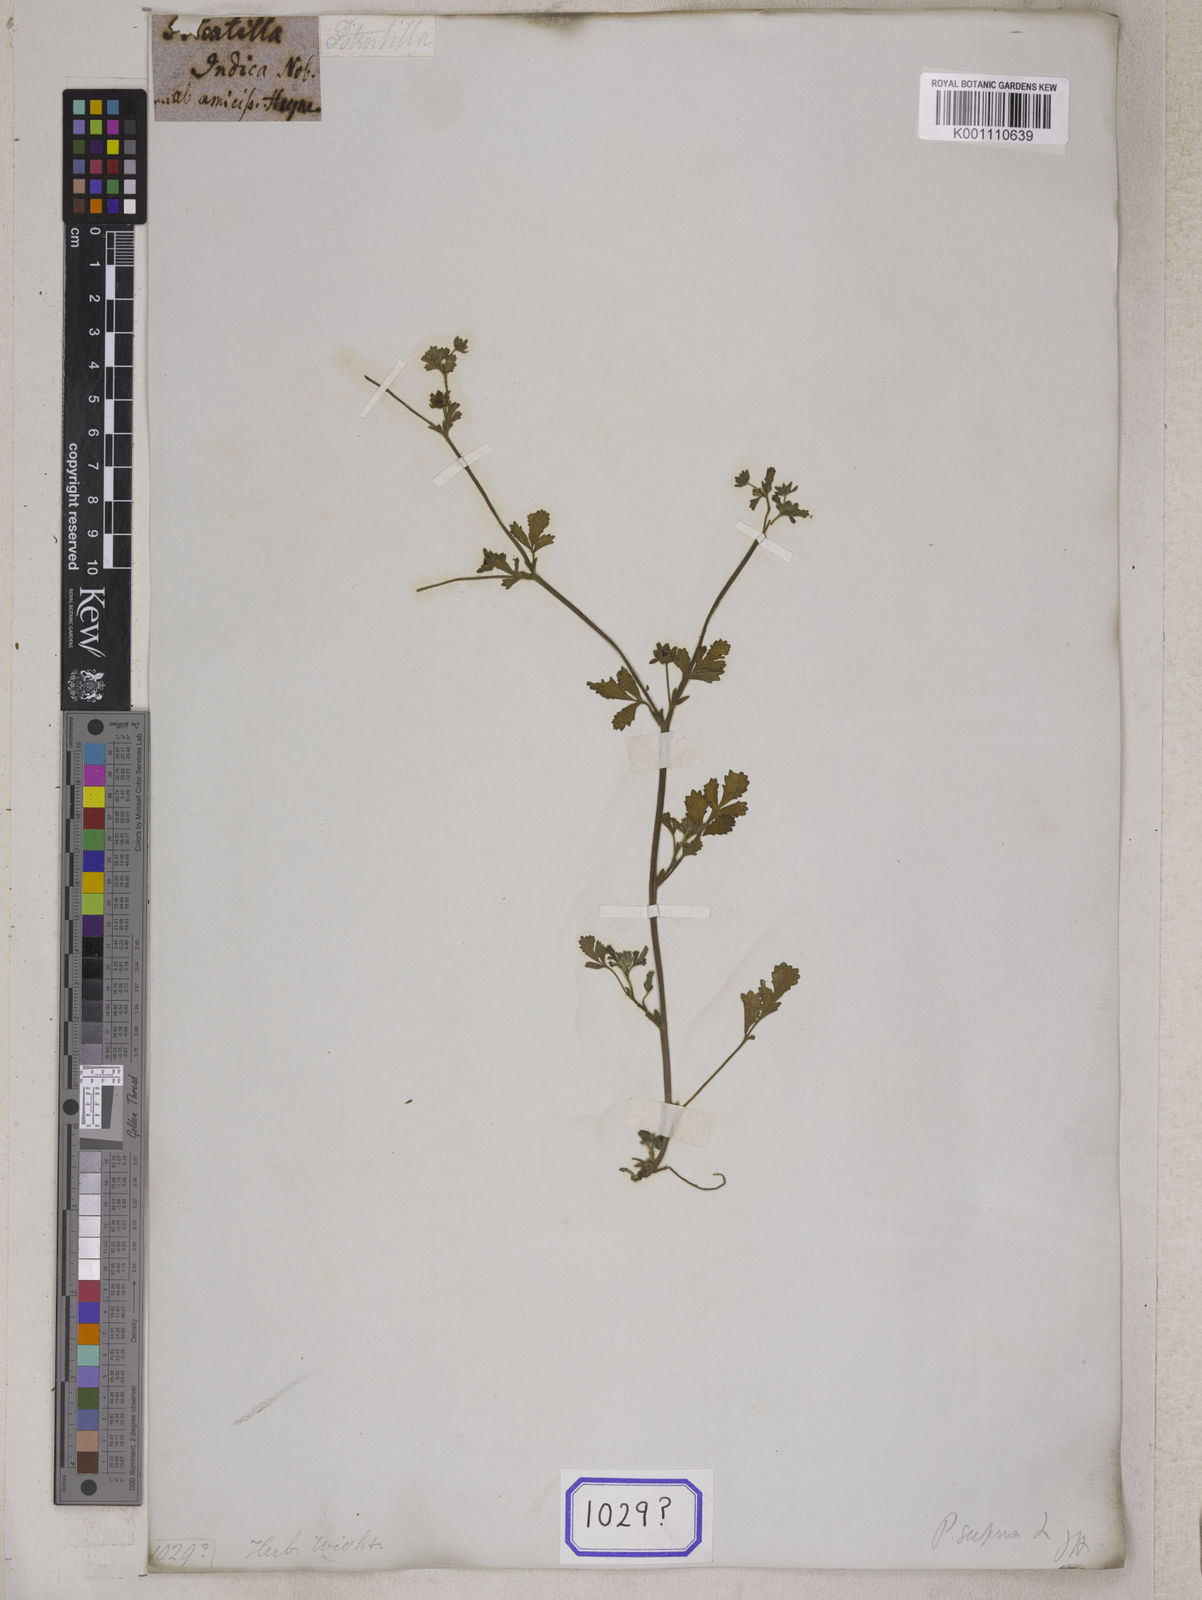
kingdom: Plantae
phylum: Tracheophyta
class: Magnoliopsida
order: Rosales
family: Rosaceae
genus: Potentilla
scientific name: Potentilla supina
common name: Prostrate cinquefoil
